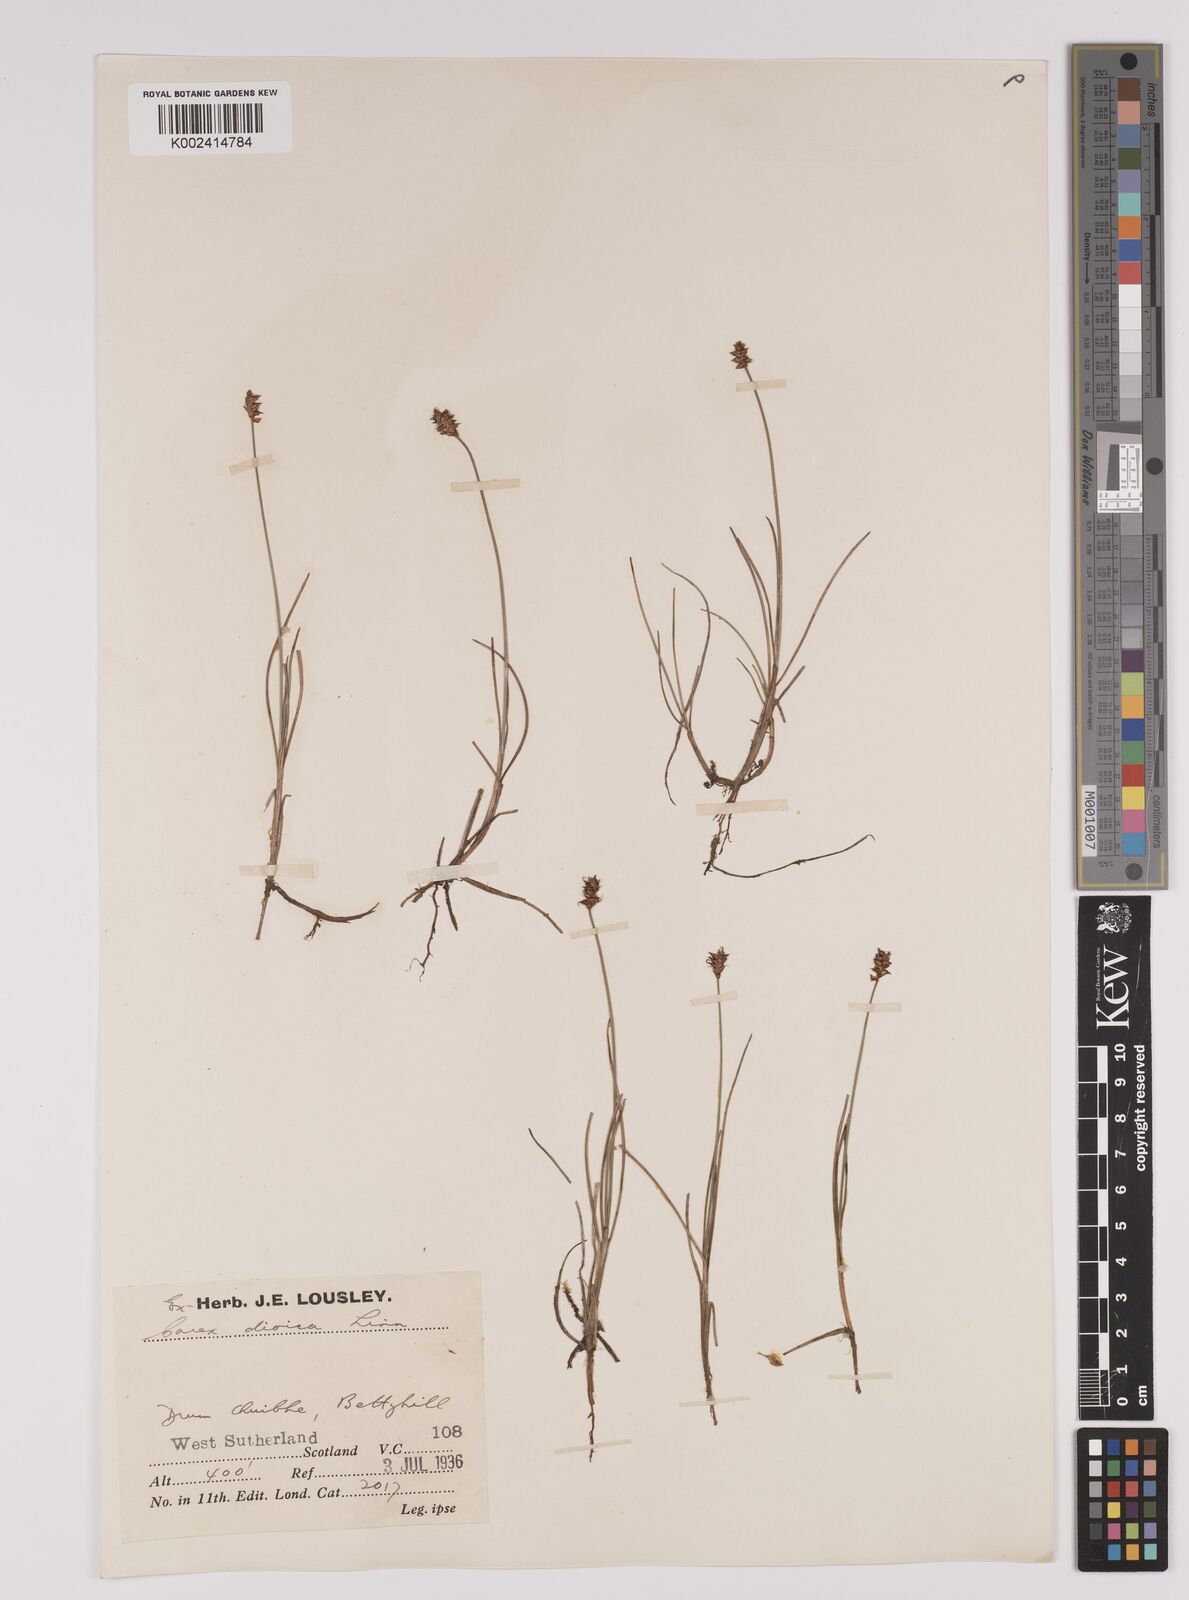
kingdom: Plantae
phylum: Tracheophyta
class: Liliopsida
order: Poales
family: Cyperaceae
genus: Carex
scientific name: Carex dioica
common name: Dioecious sedge
